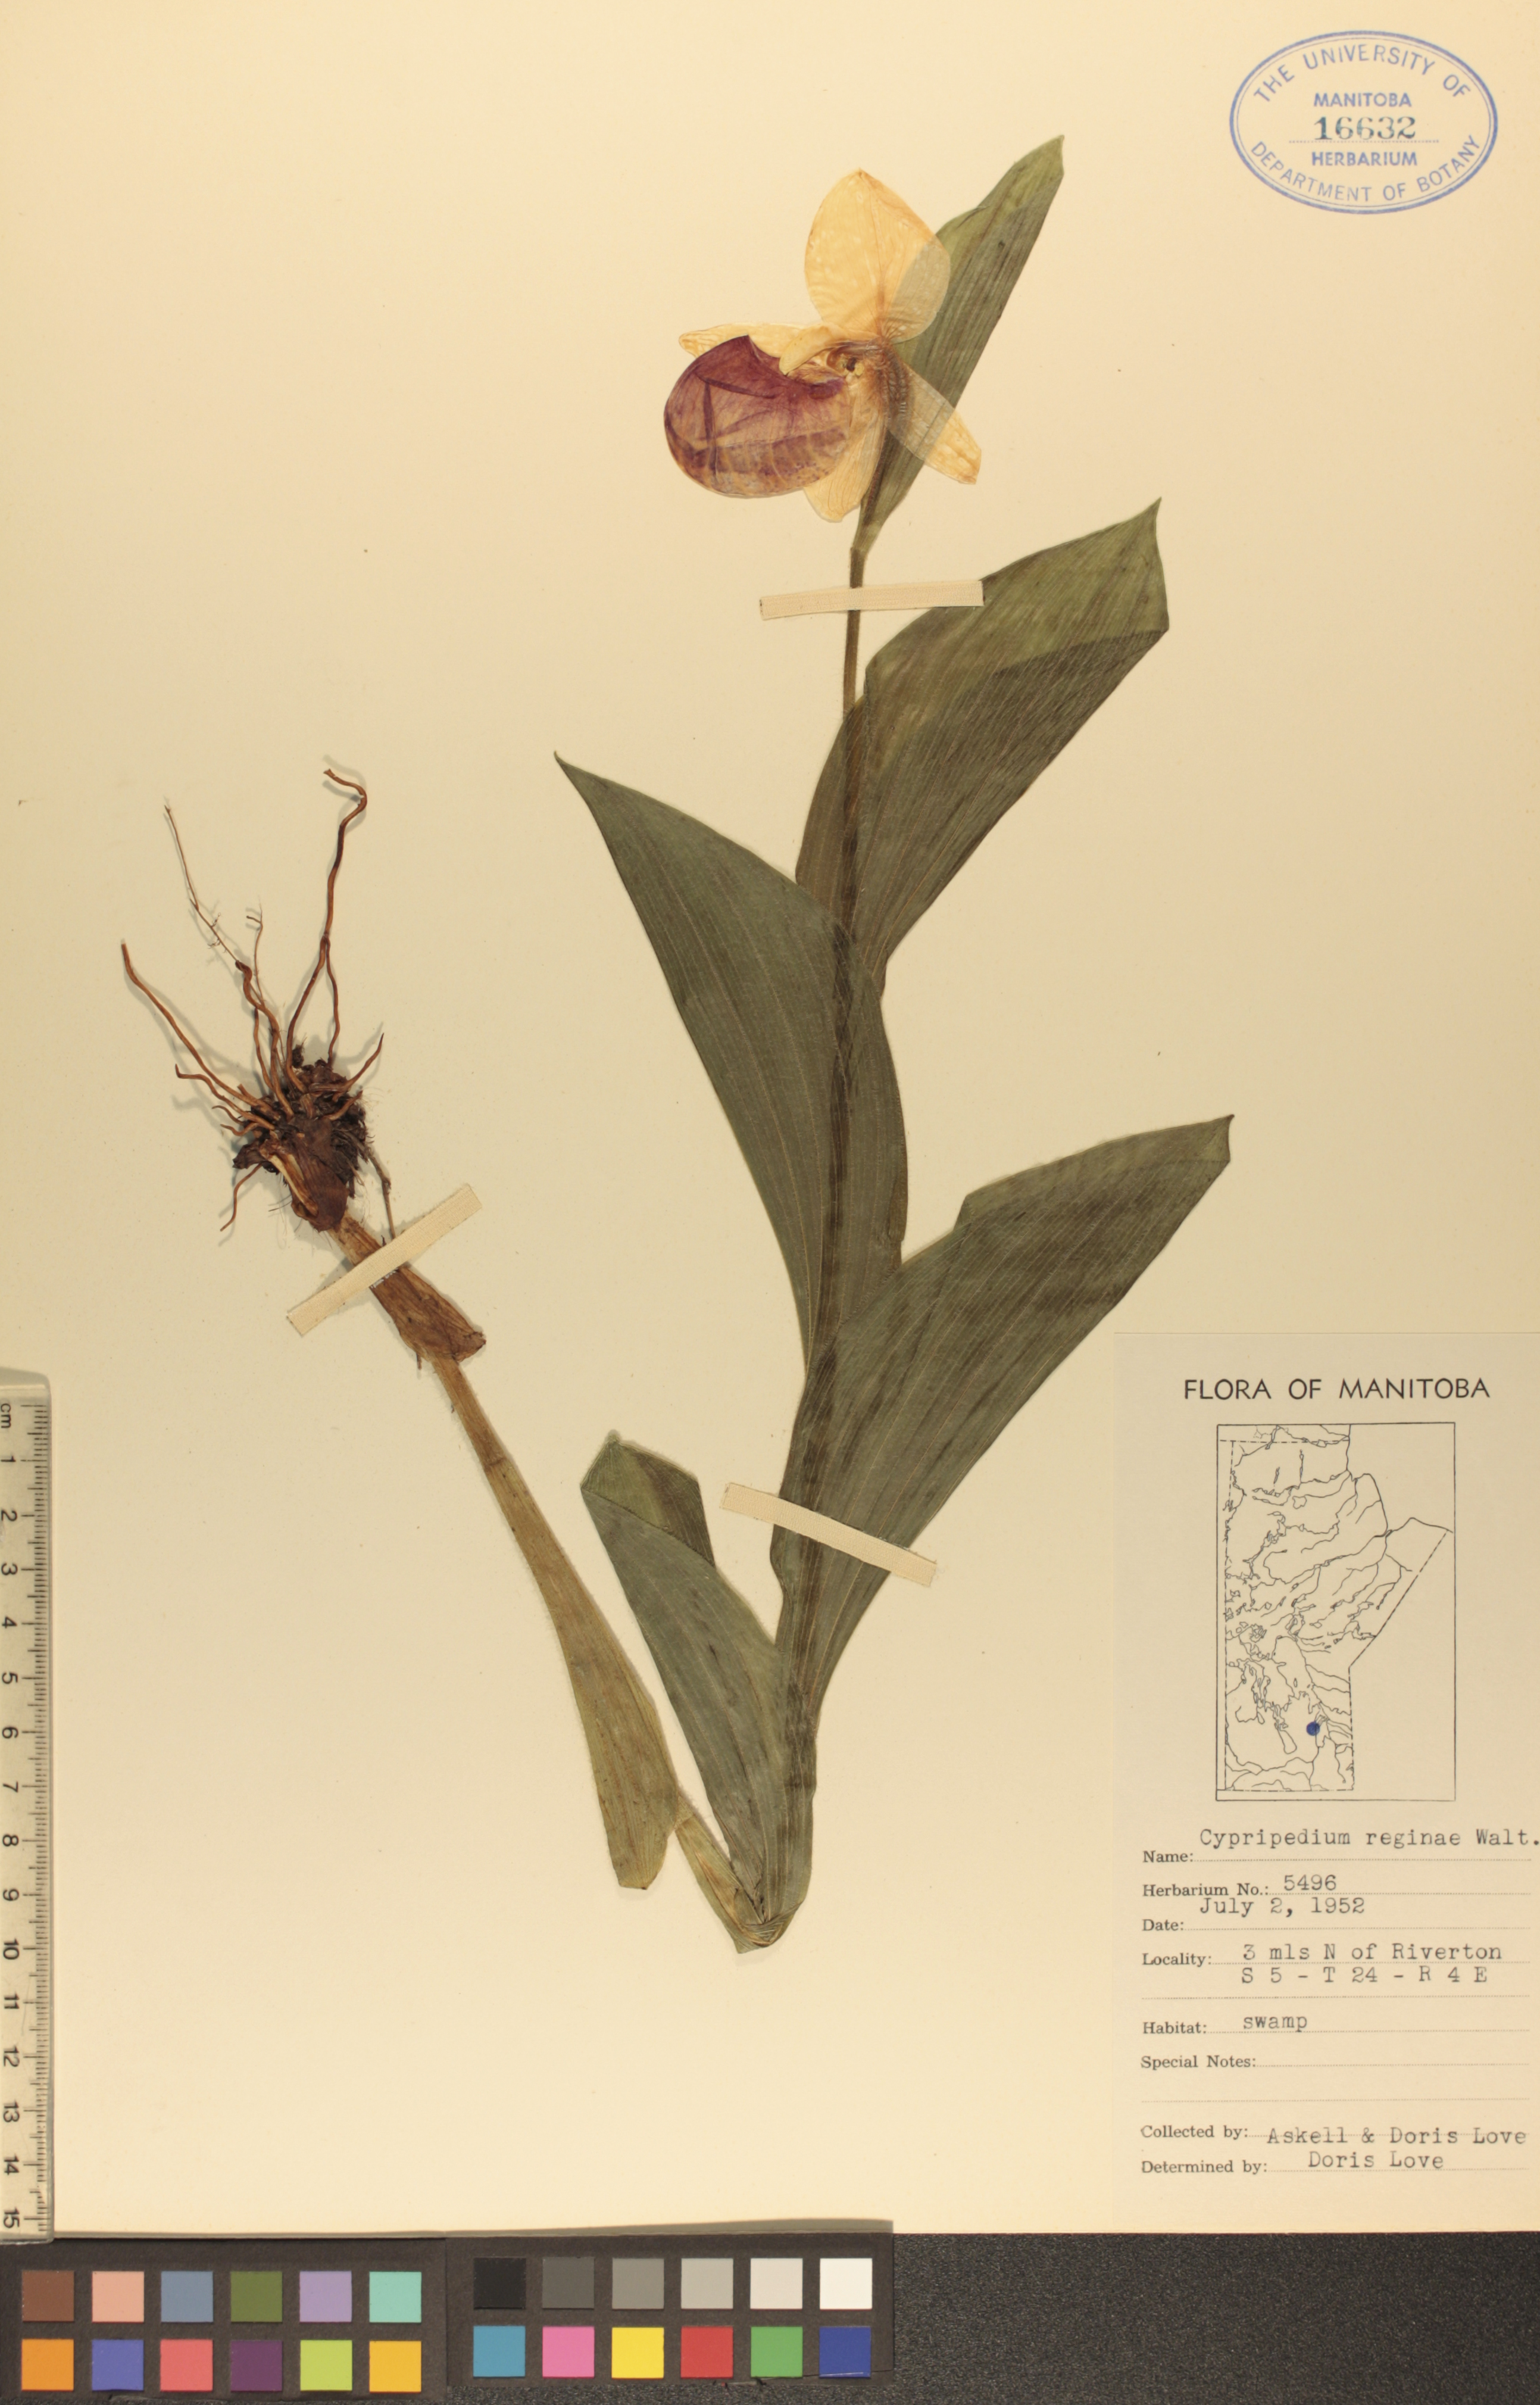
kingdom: Plantae
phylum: Tracheophyta
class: Liliopsida
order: Asparagales
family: Orchidaceae
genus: Cypripedium
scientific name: Cypripedium reginae
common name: Queen lady's-slipper
